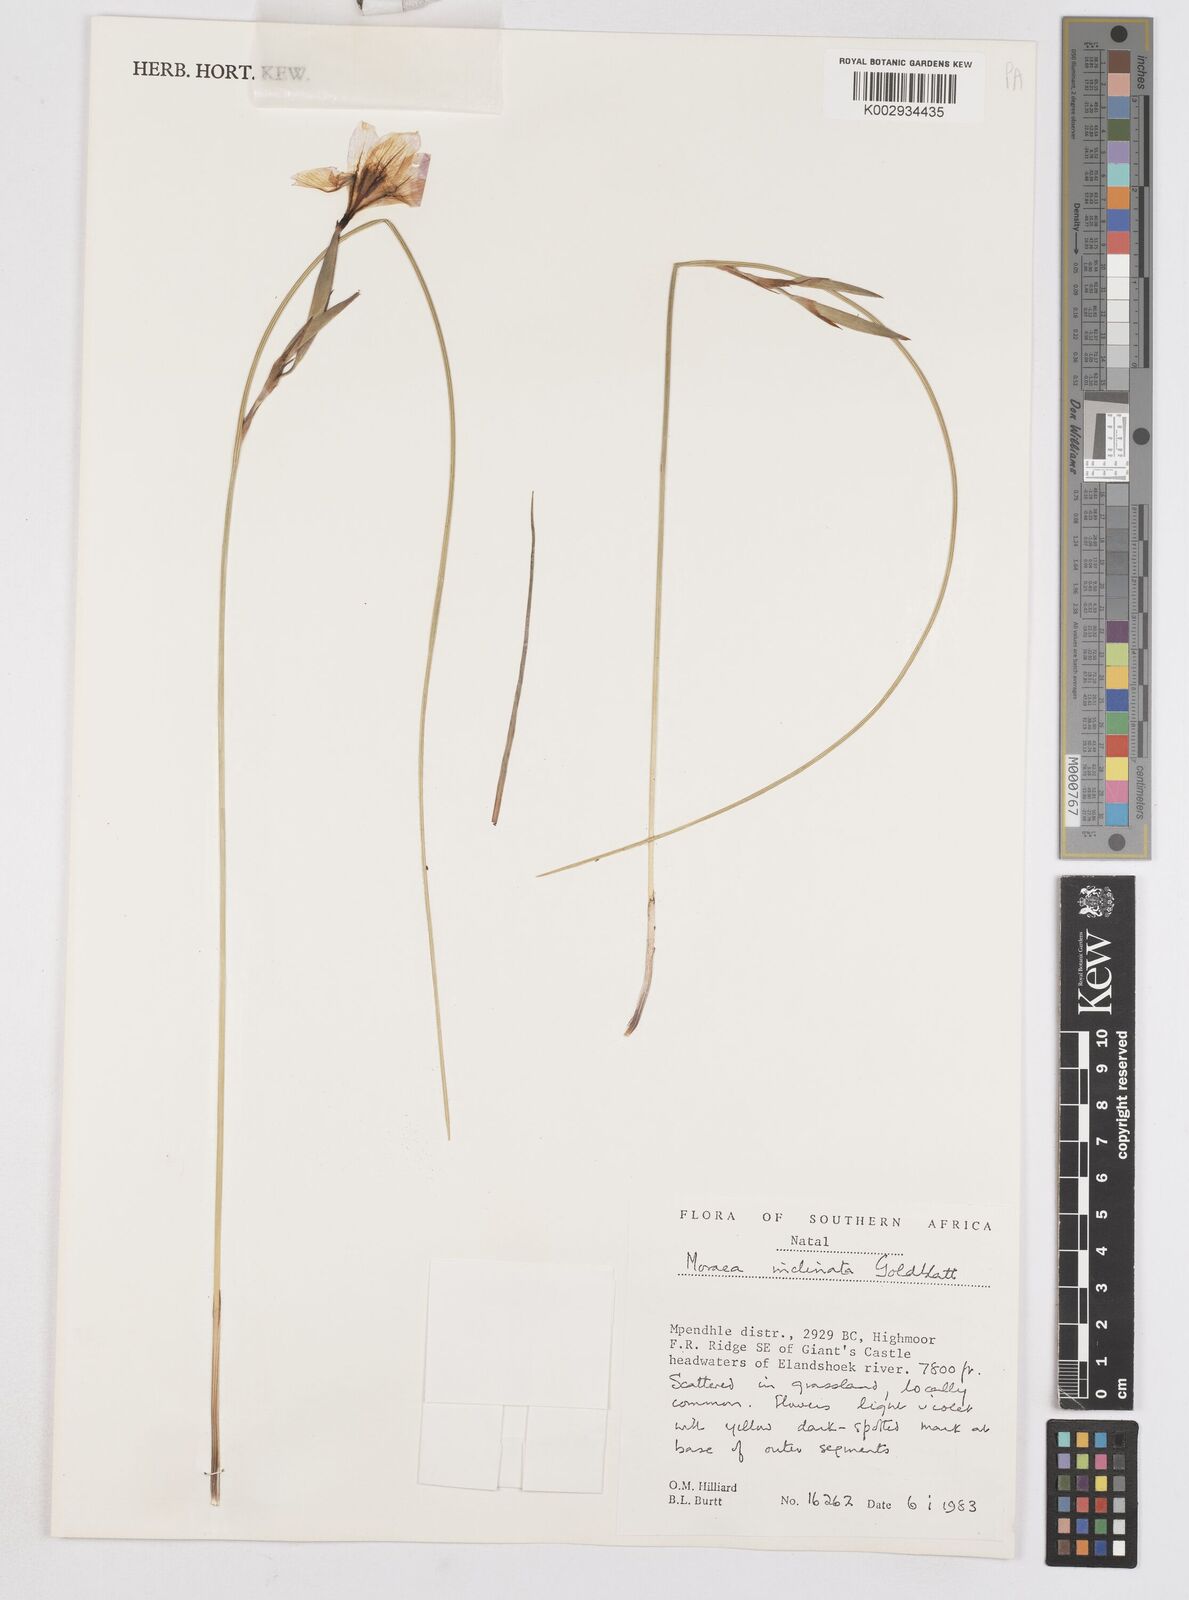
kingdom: Plantae
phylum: Tracheophyta
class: Liliopsida
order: Asparagales
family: Iridaceae
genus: Moraea
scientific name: Moraea inclinata
